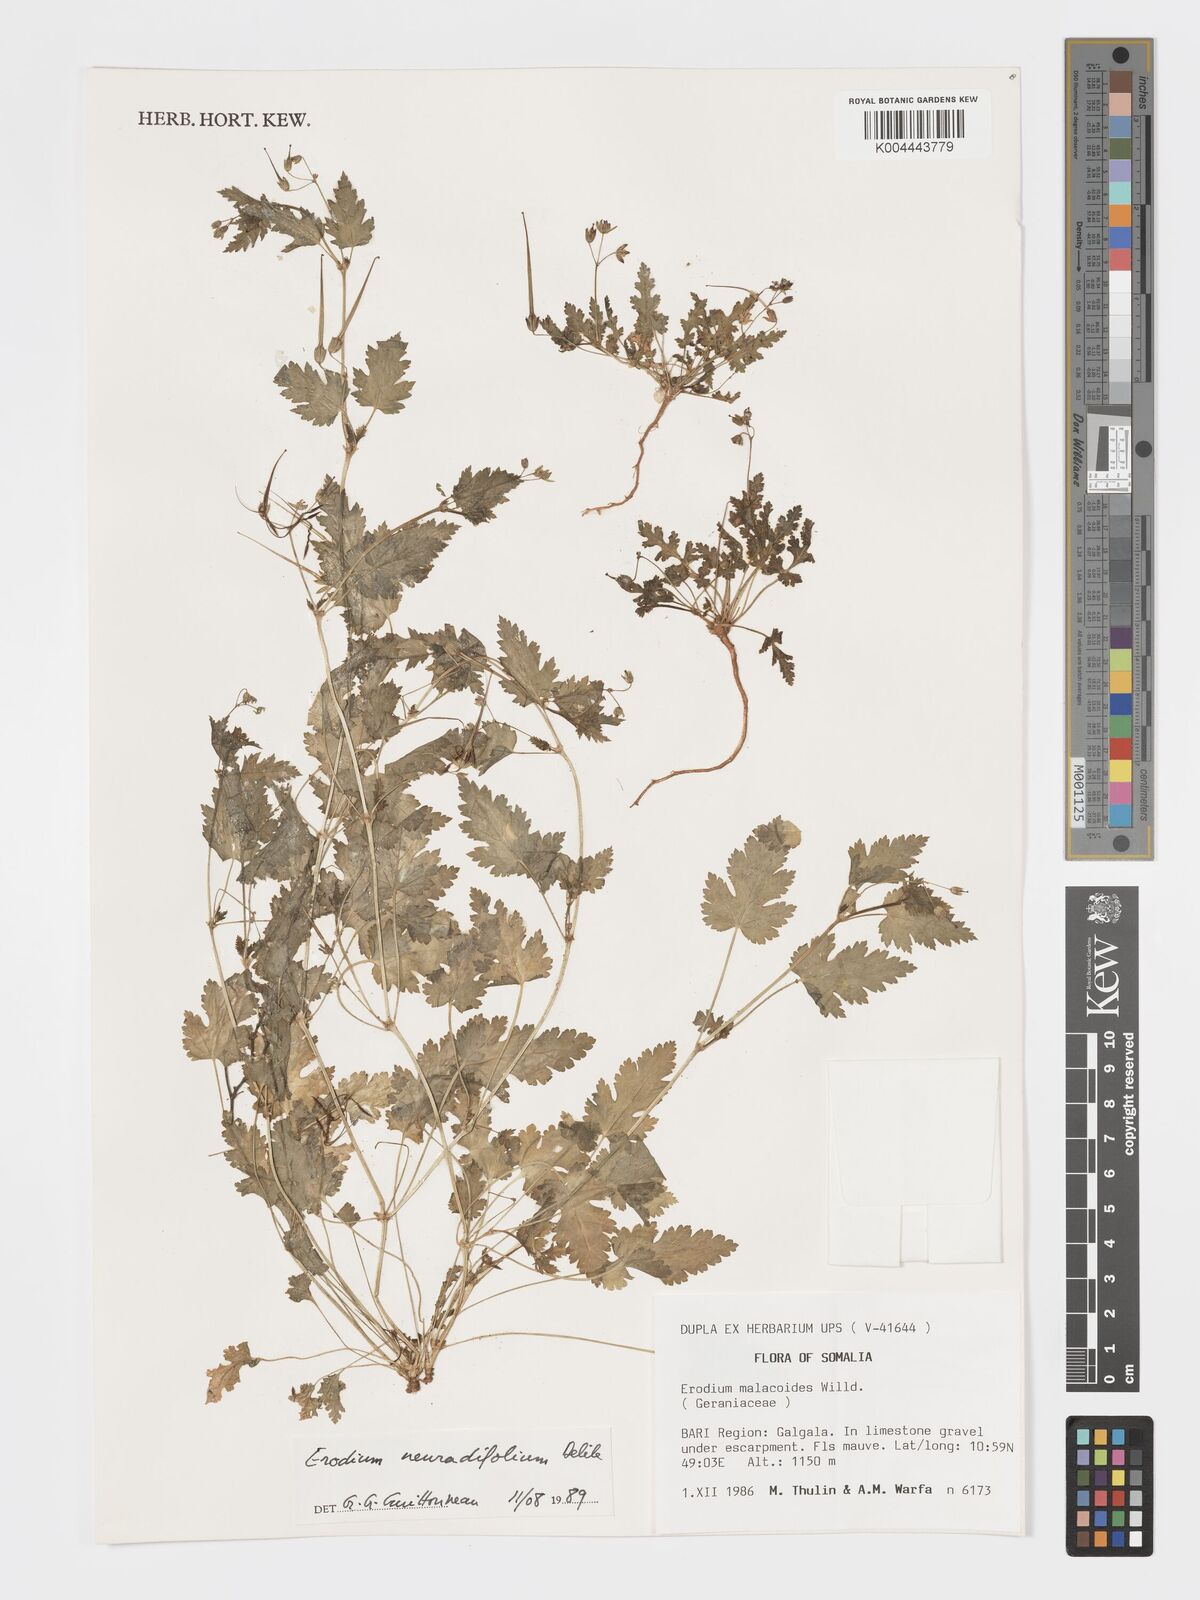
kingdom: Plantae
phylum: Tracheophyta
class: Magnoliopsida
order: Geraniales
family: Geraniaceae
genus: Erodium
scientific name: Erodium neuradifolium
